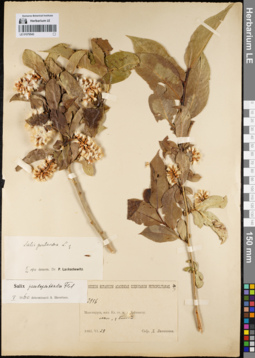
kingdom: Plantae
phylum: Tracheophyta
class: Magnoliopsida
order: Malpighiales
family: Salicaceae
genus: Salix
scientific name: Salix pseudopentandra
